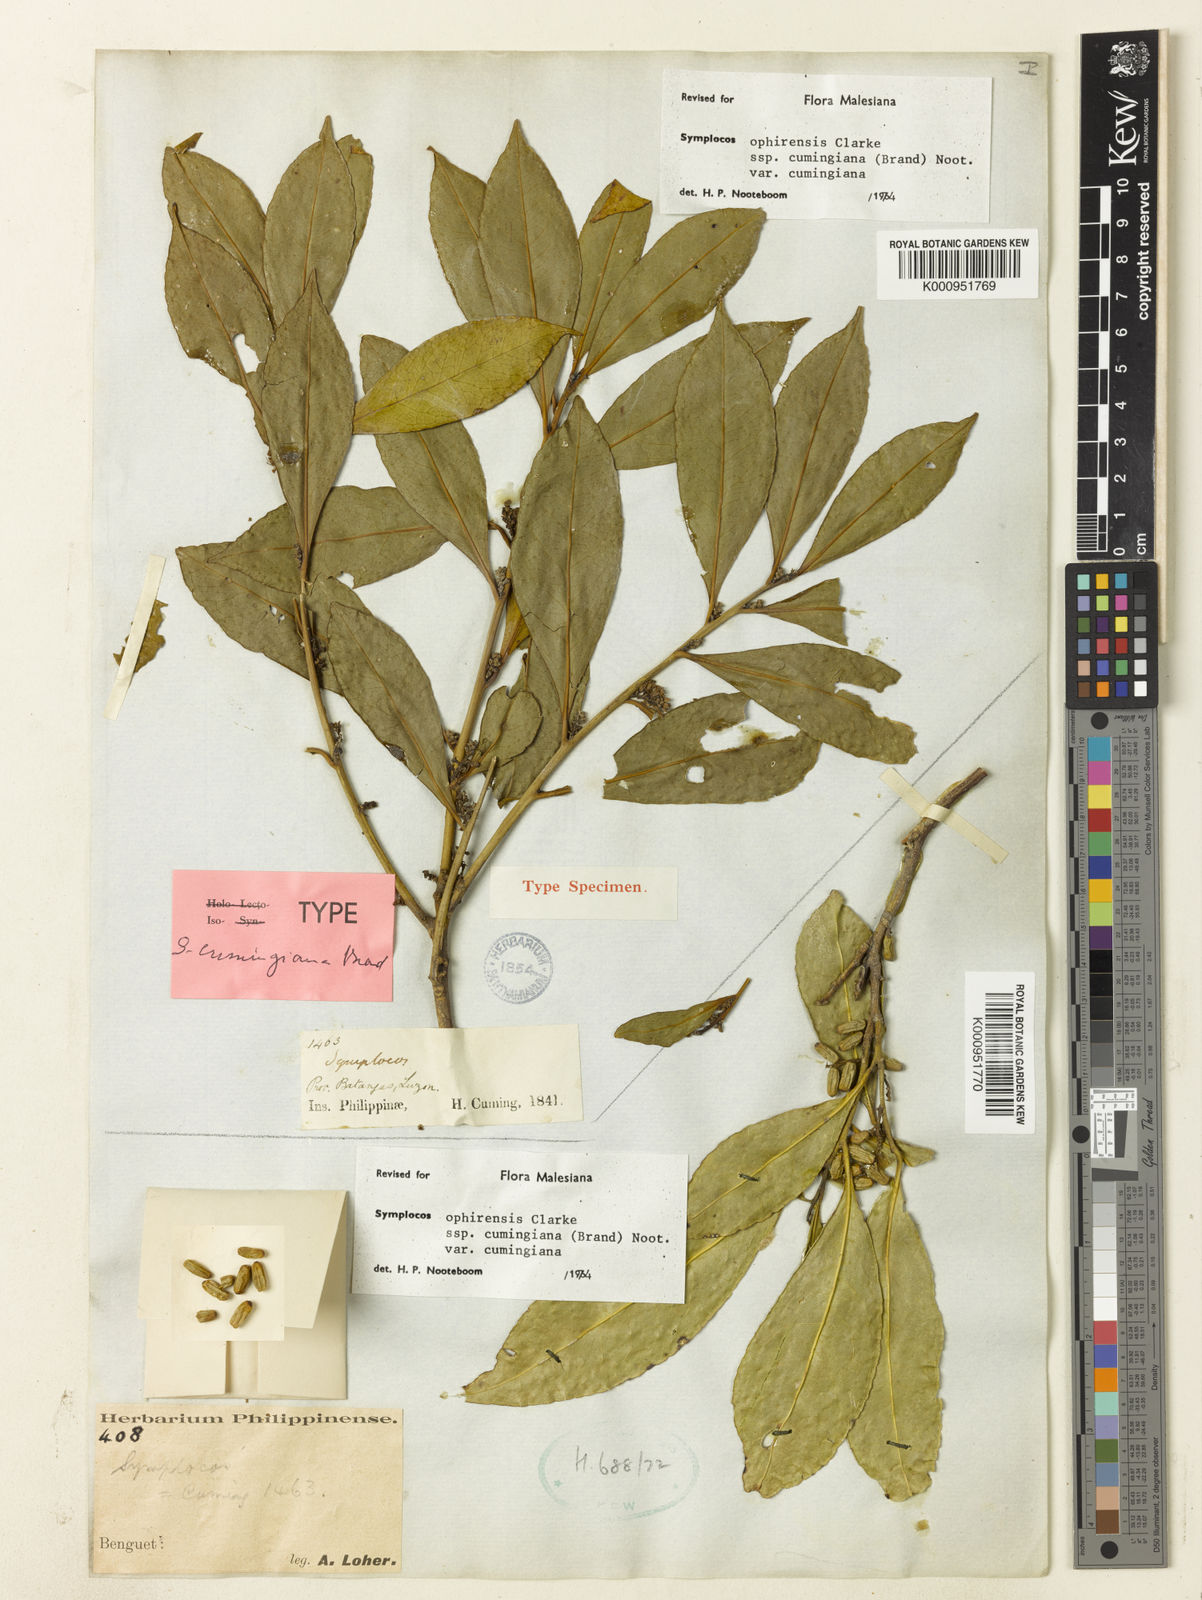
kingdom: Plantae
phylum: Tracheophyta
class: Magnoliopsida
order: Ericales
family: Symplocaceae
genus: Symplocos
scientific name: Symplocos ophirensis
